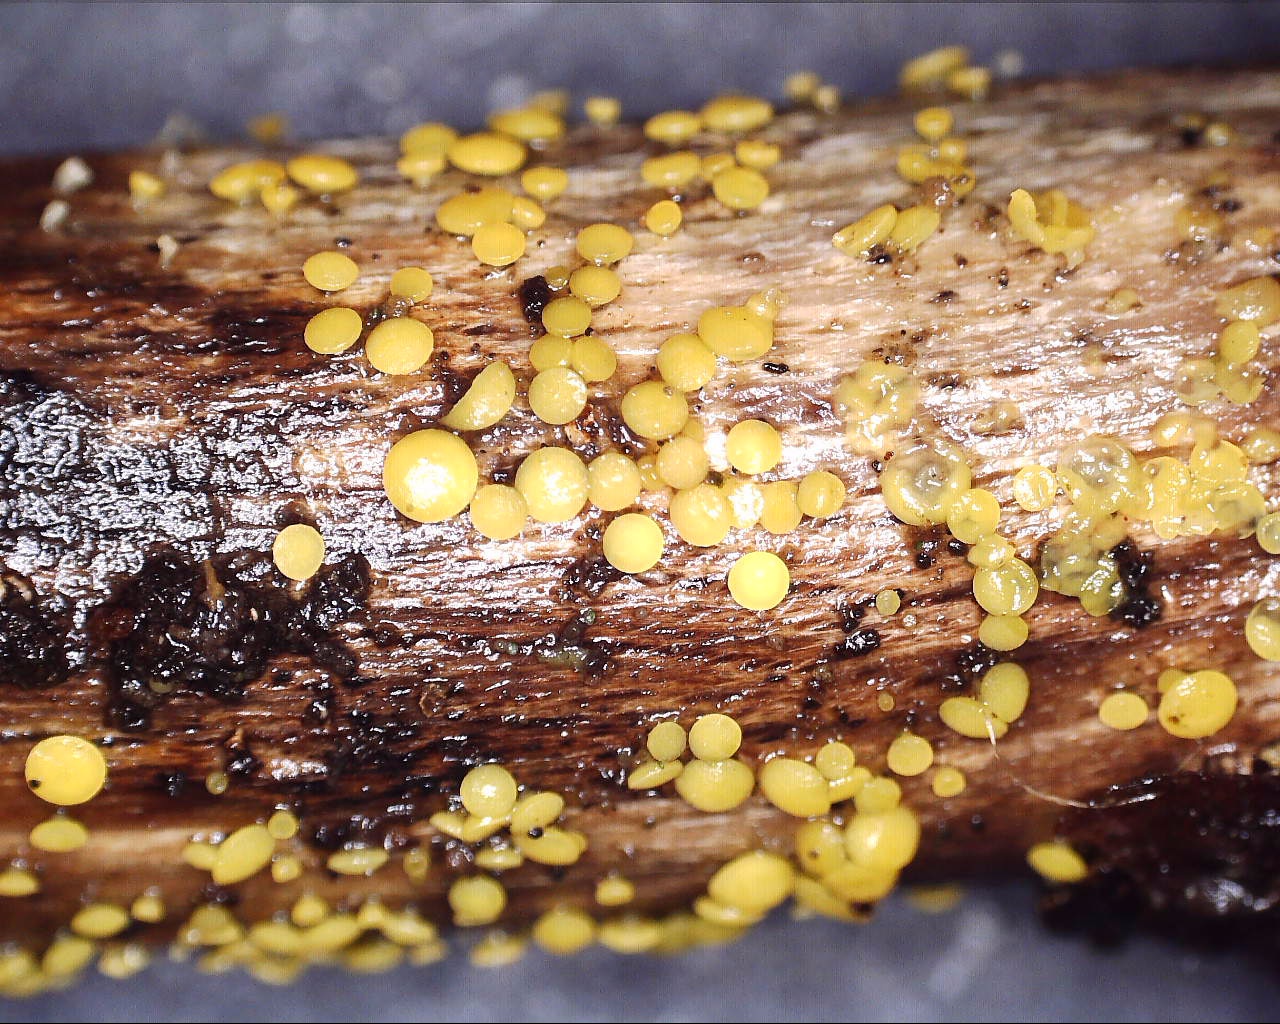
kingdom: Fungi
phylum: Ascomycota
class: Leotiomycetes
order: Helotiales
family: Pezizellaceae
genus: Calycina
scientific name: Calycina citrina
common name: almindelig gulskive
